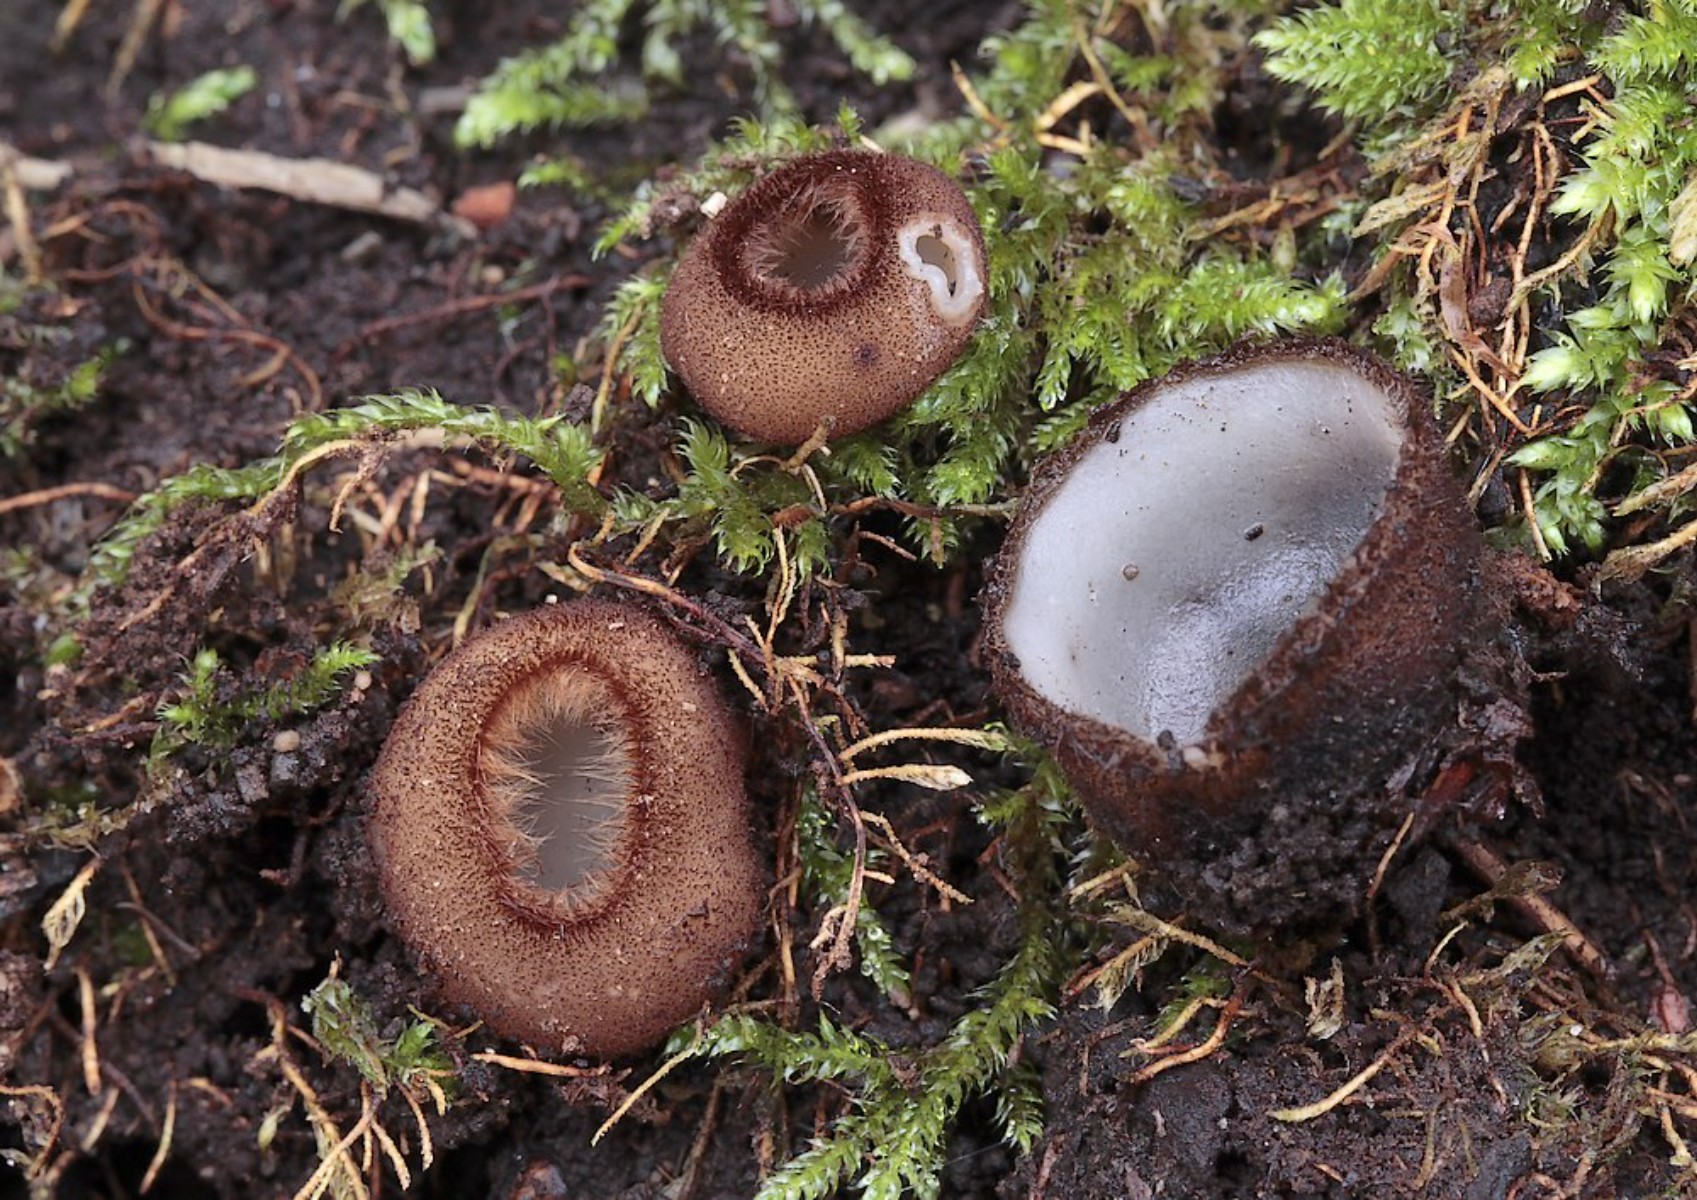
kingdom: Fungi
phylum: Ascomycota
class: Pezizomycetes
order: Pezizales
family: Pyronemataceae
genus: Humaria
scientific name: Humaria hemisphaerica
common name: halvkugleformet børstebæger
